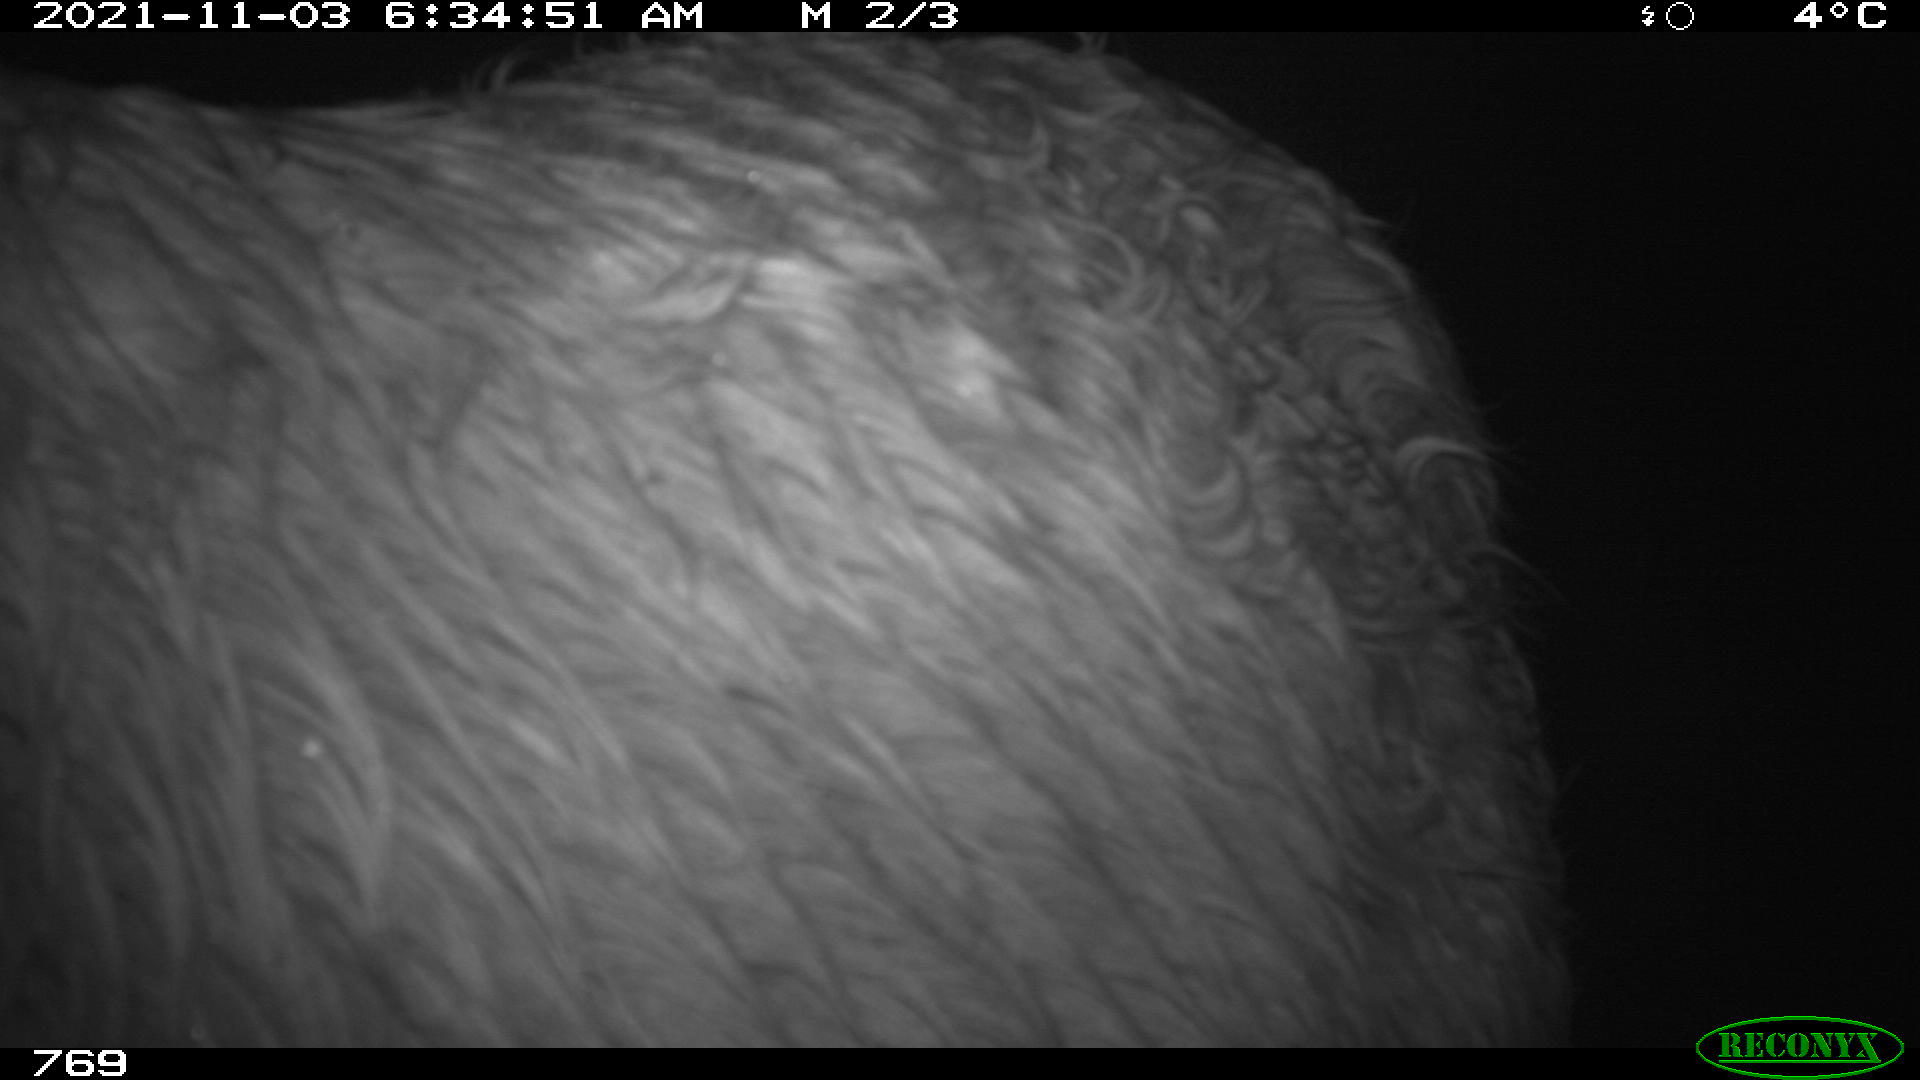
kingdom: Animalia
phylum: Chordata
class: Mammalia
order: Perissodactyla
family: Equidae
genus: Equus
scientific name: Equus caballus
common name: Horse
